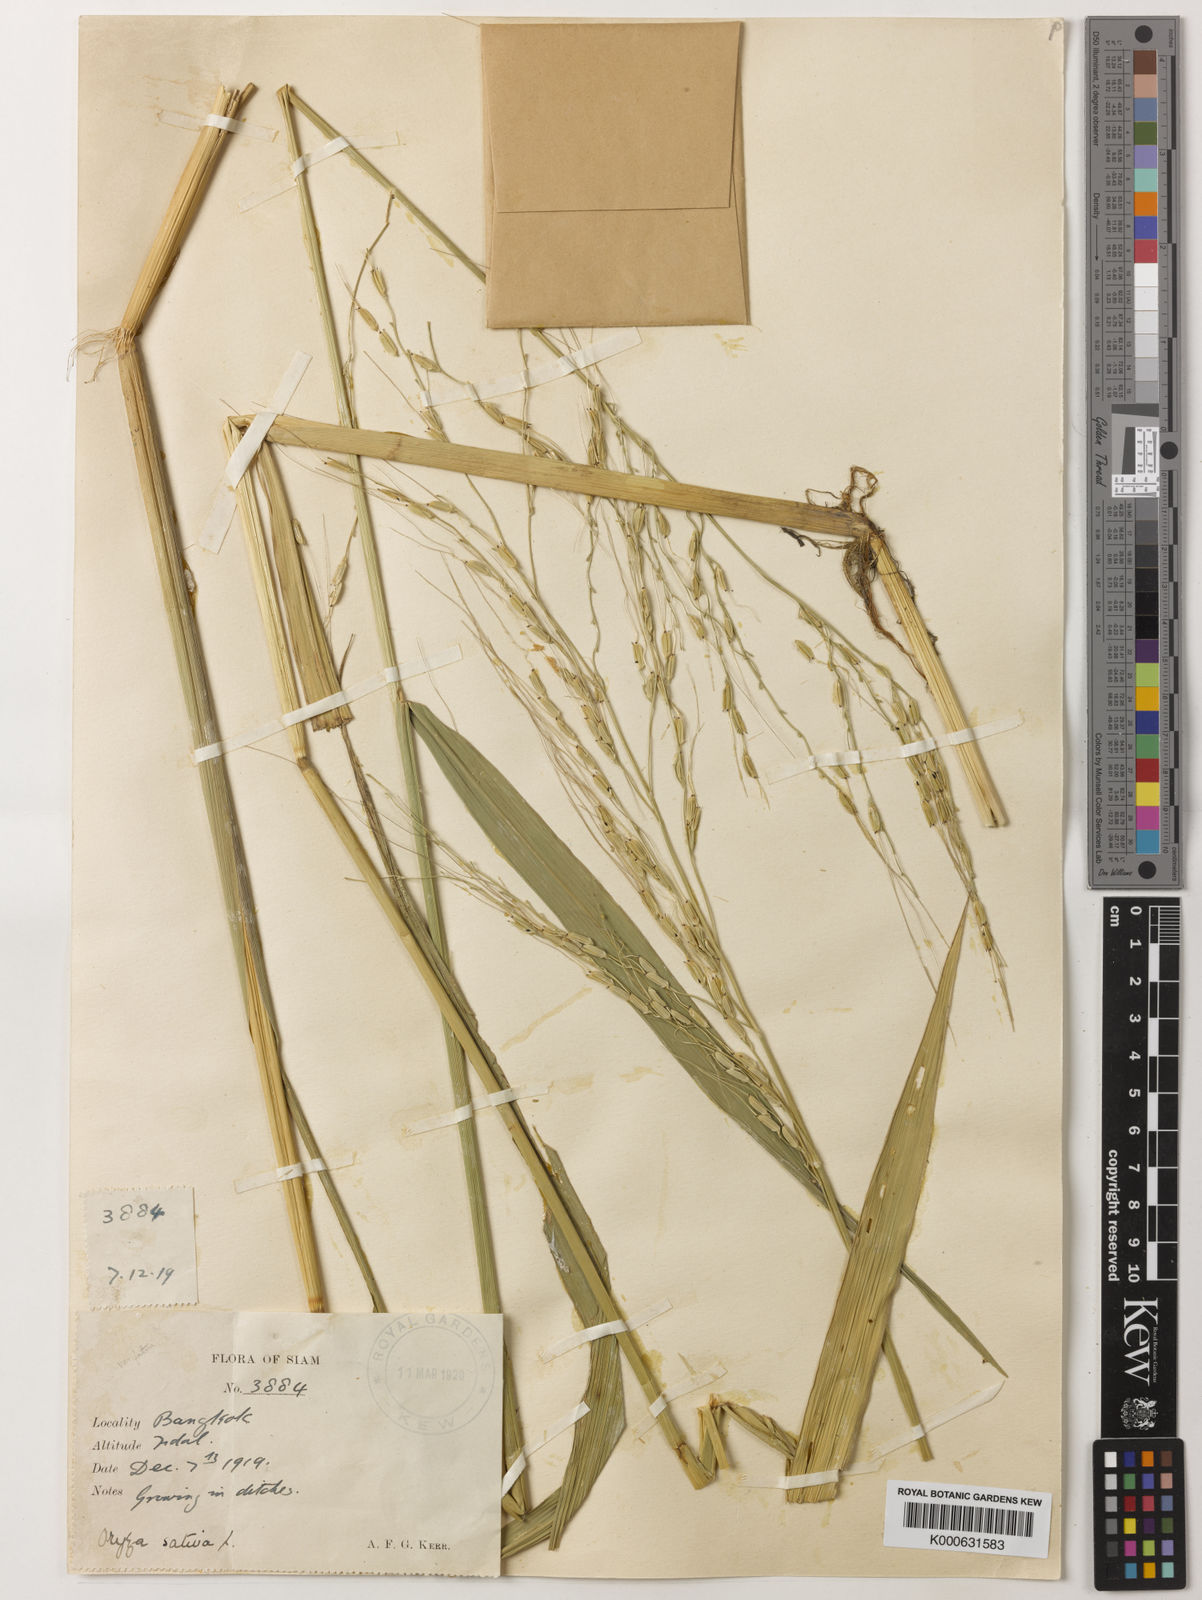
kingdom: Plantae
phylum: Tracheophyta
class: Liliopsida
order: Poales
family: Poaceae
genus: Oryza
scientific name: Oryza rufipogon
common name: Red rice
